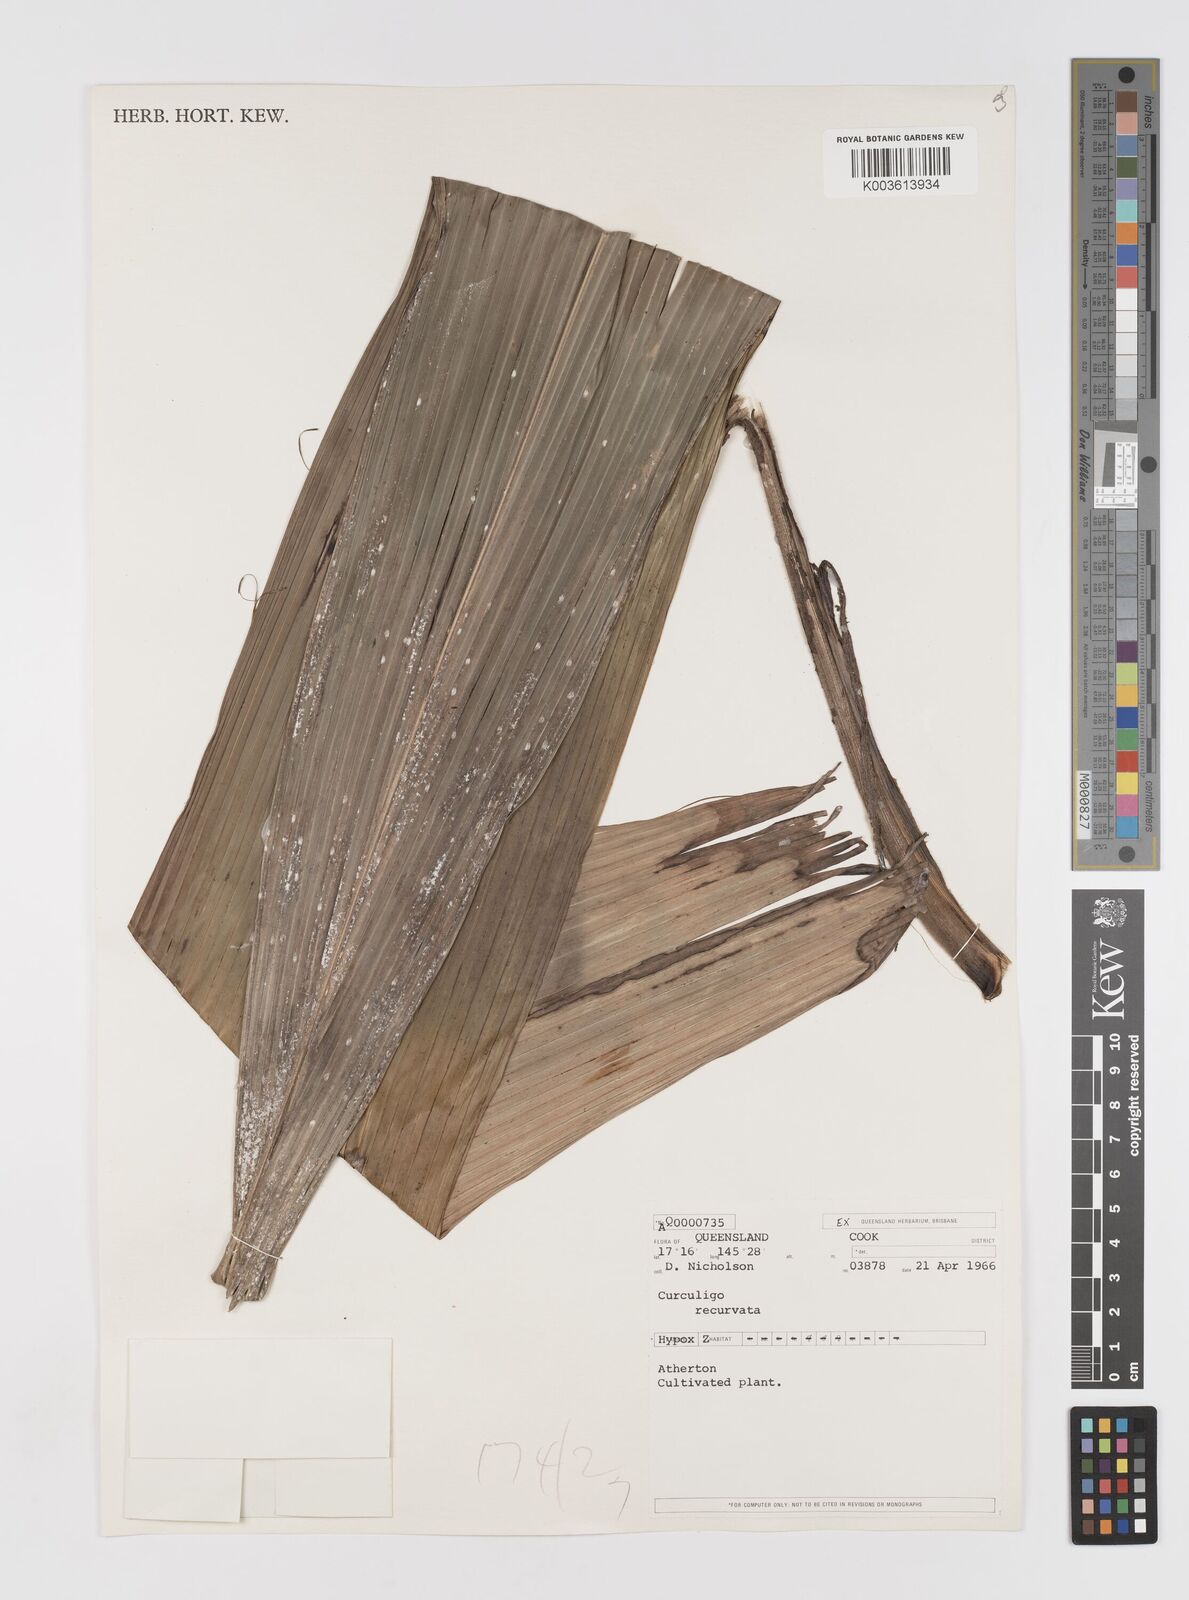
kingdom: Plantae
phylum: Tracheophyta
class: Liliopsida
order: Asparagales
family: Hypoxidaceae
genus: Curculigo
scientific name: Curculigo capitulata
